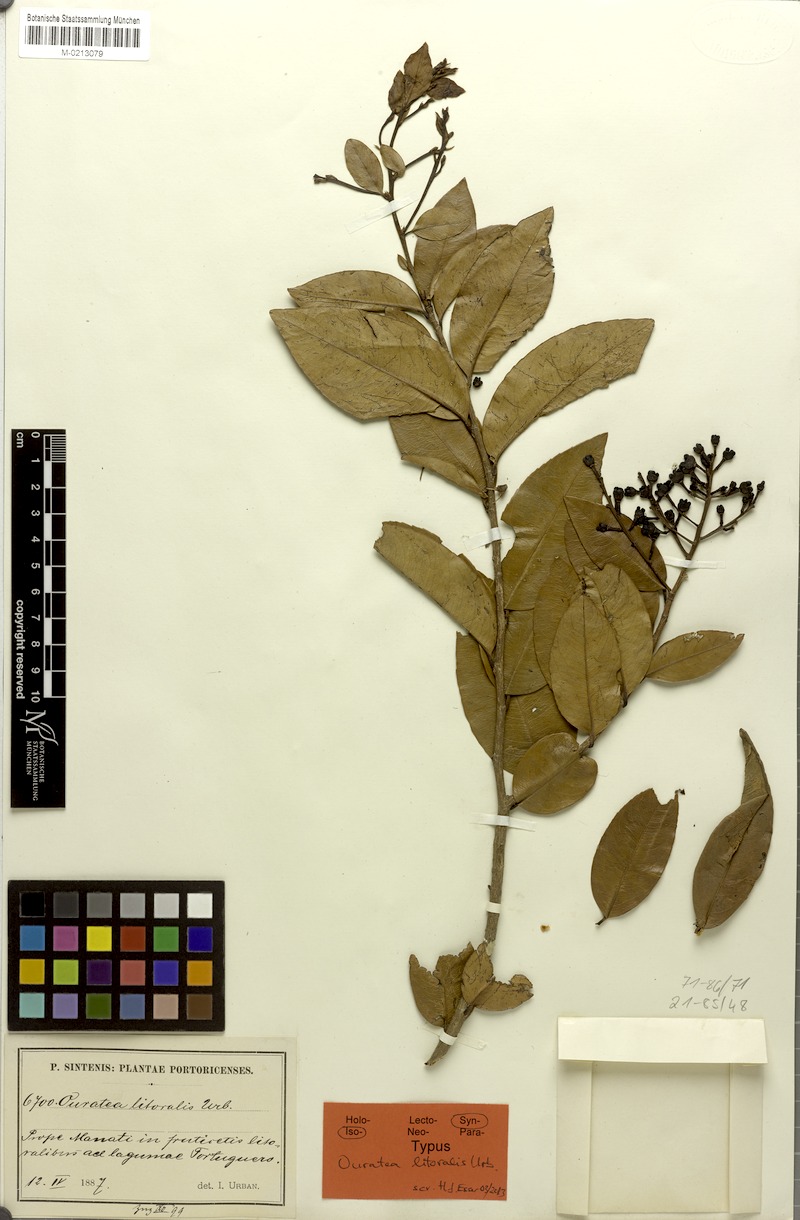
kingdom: Plantae
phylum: Tracheophyta
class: Magnoliopsida
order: Malpighiales
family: Ochnaceae
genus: Ouratea
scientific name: Ouratea litoralis
